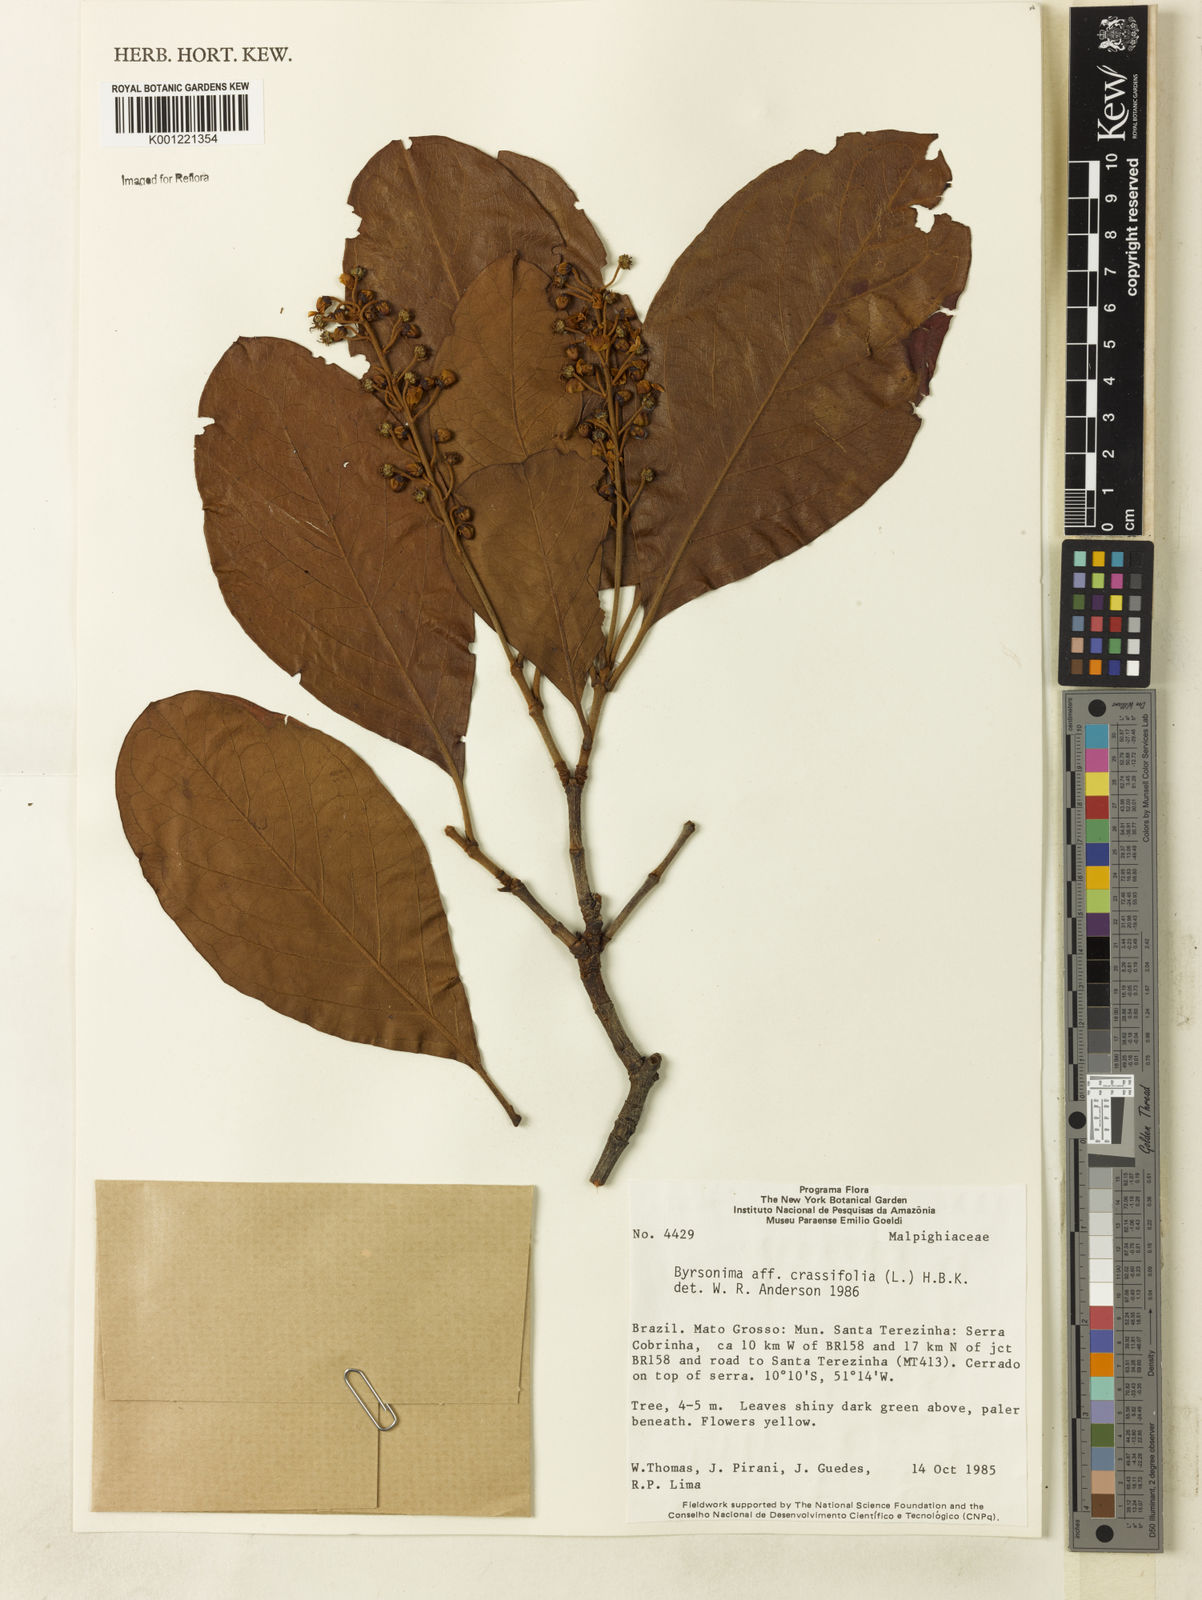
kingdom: Plantae
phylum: Tracheophyta
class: Magnoliopsida
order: Malpighiales
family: Malpighiaceae
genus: Byrsonima
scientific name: Byrsonima crassifolia
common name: Golden spoon
